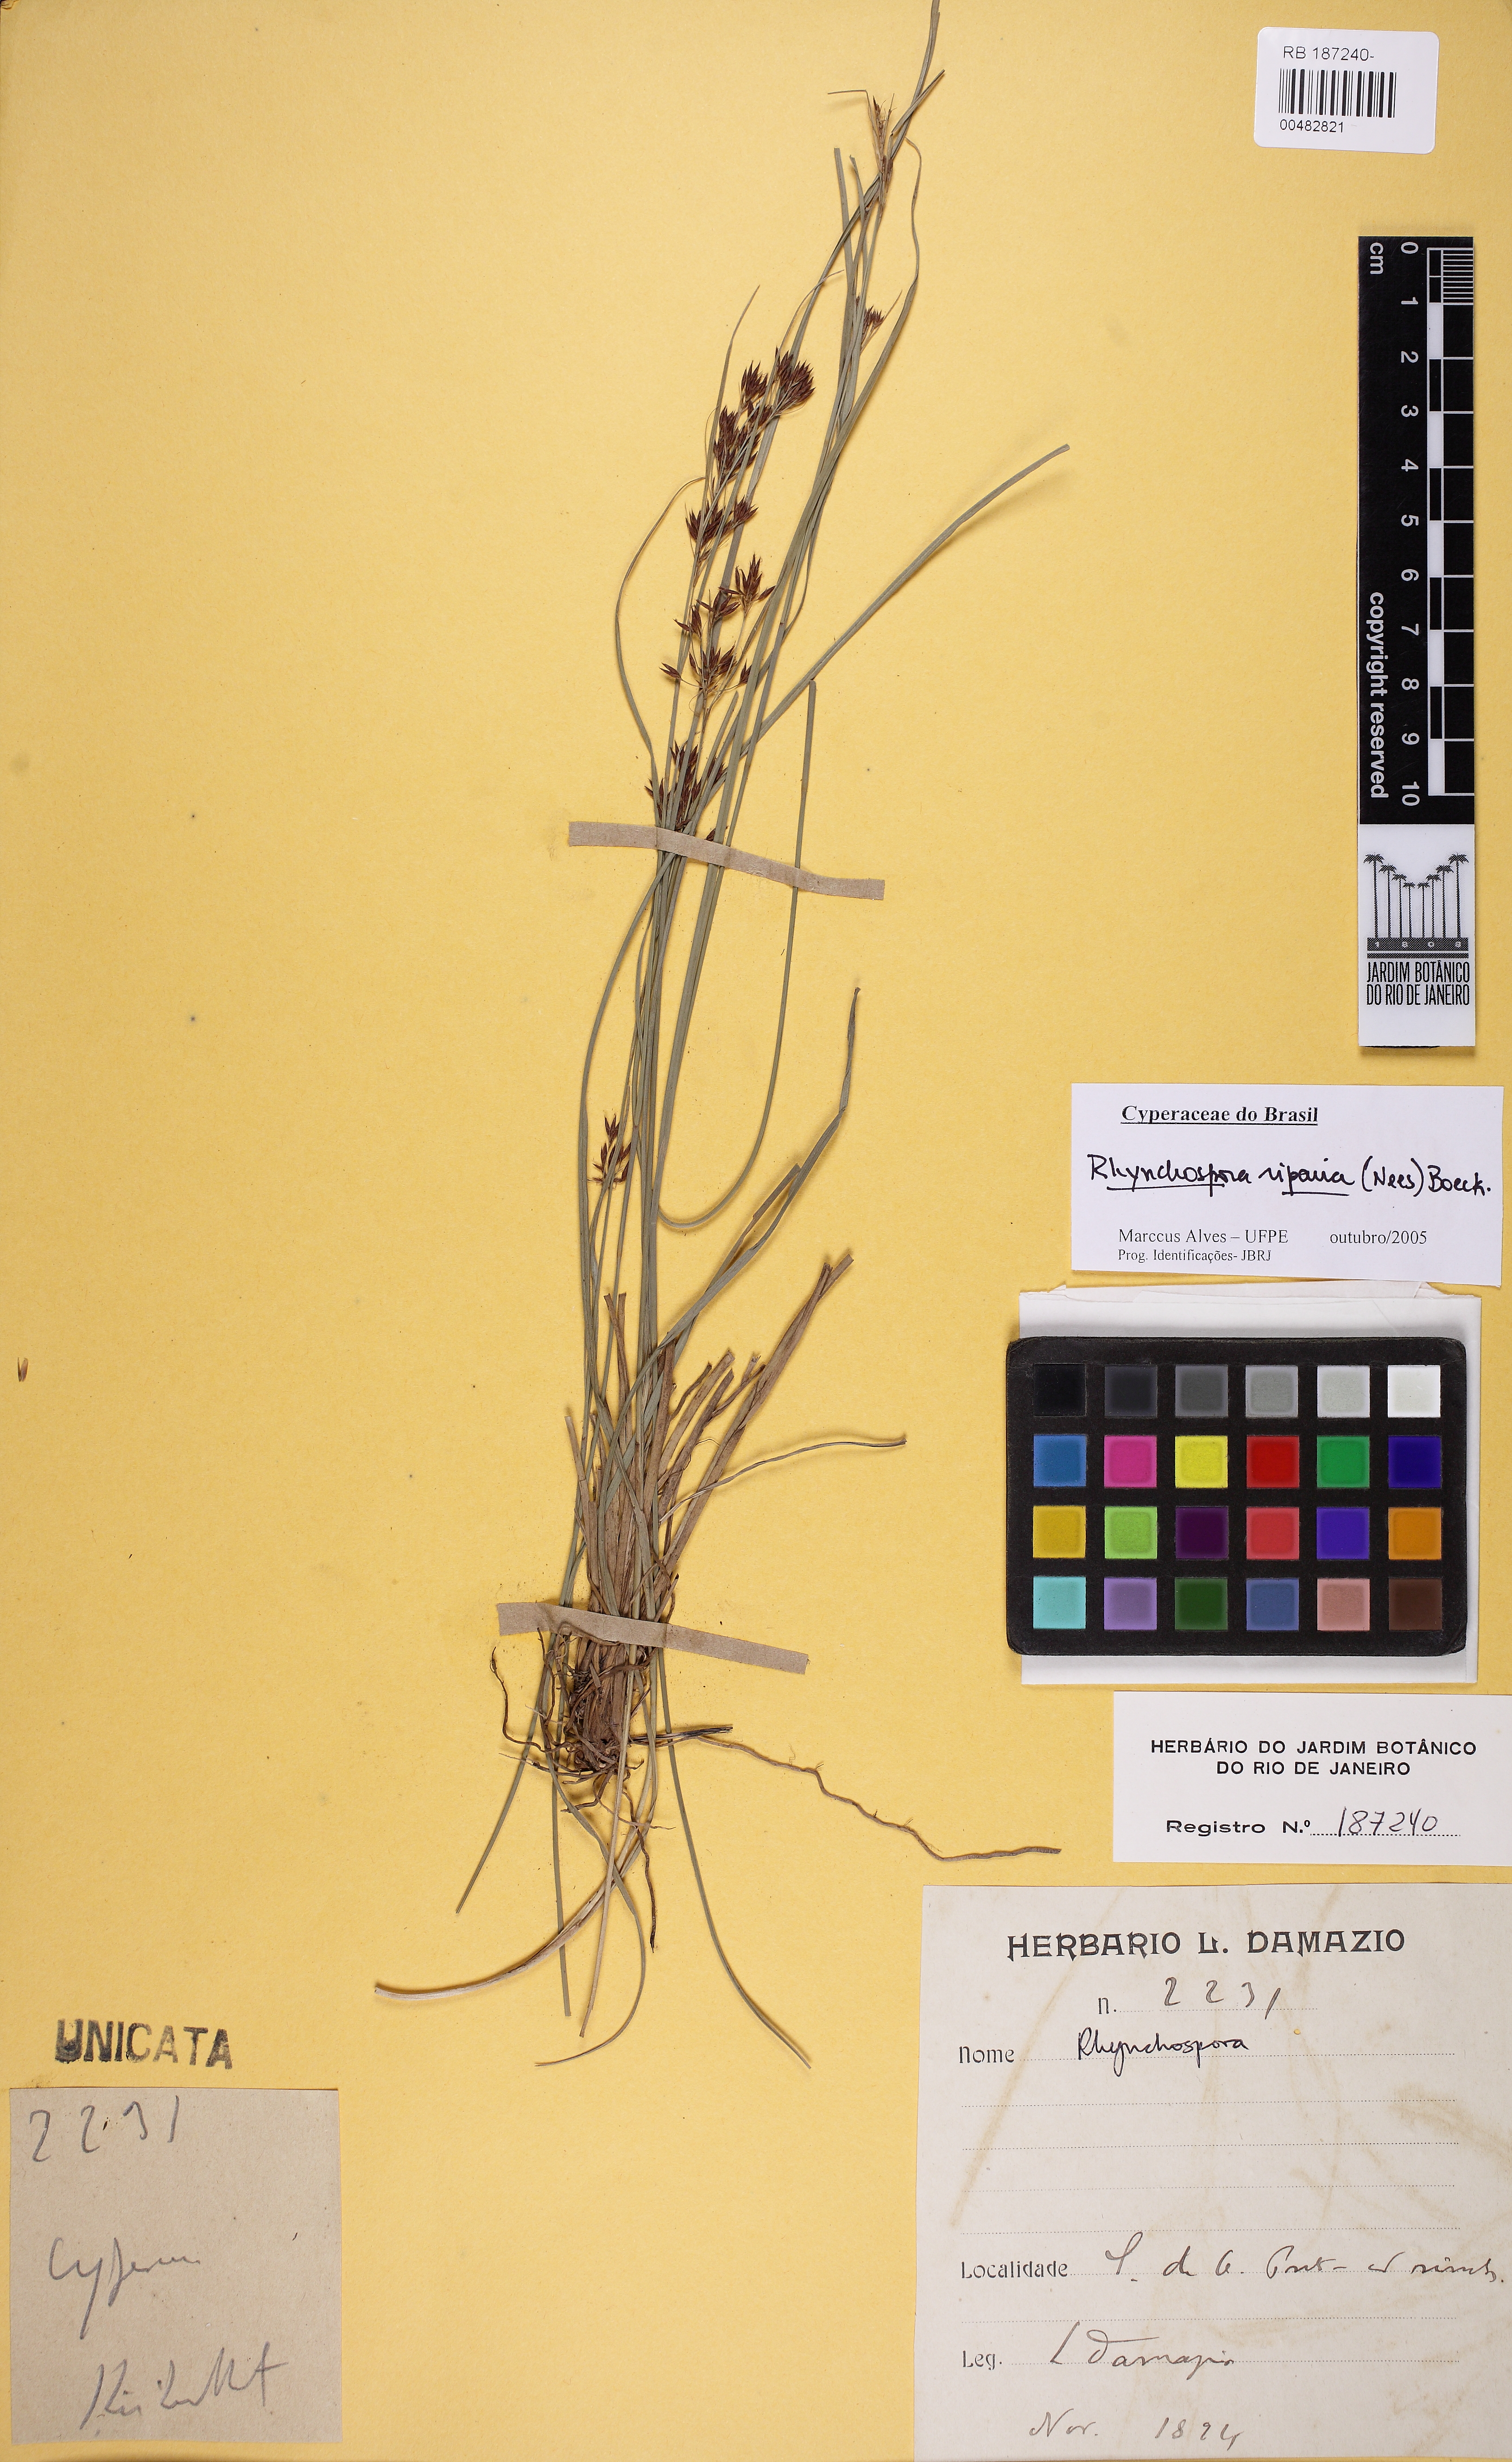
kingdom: Plantae
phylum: Tracheophyta
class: Liliopsida
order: Poales
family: Cyperaceae
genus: Rhynchospora
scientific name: Rhynchospora marisculus
